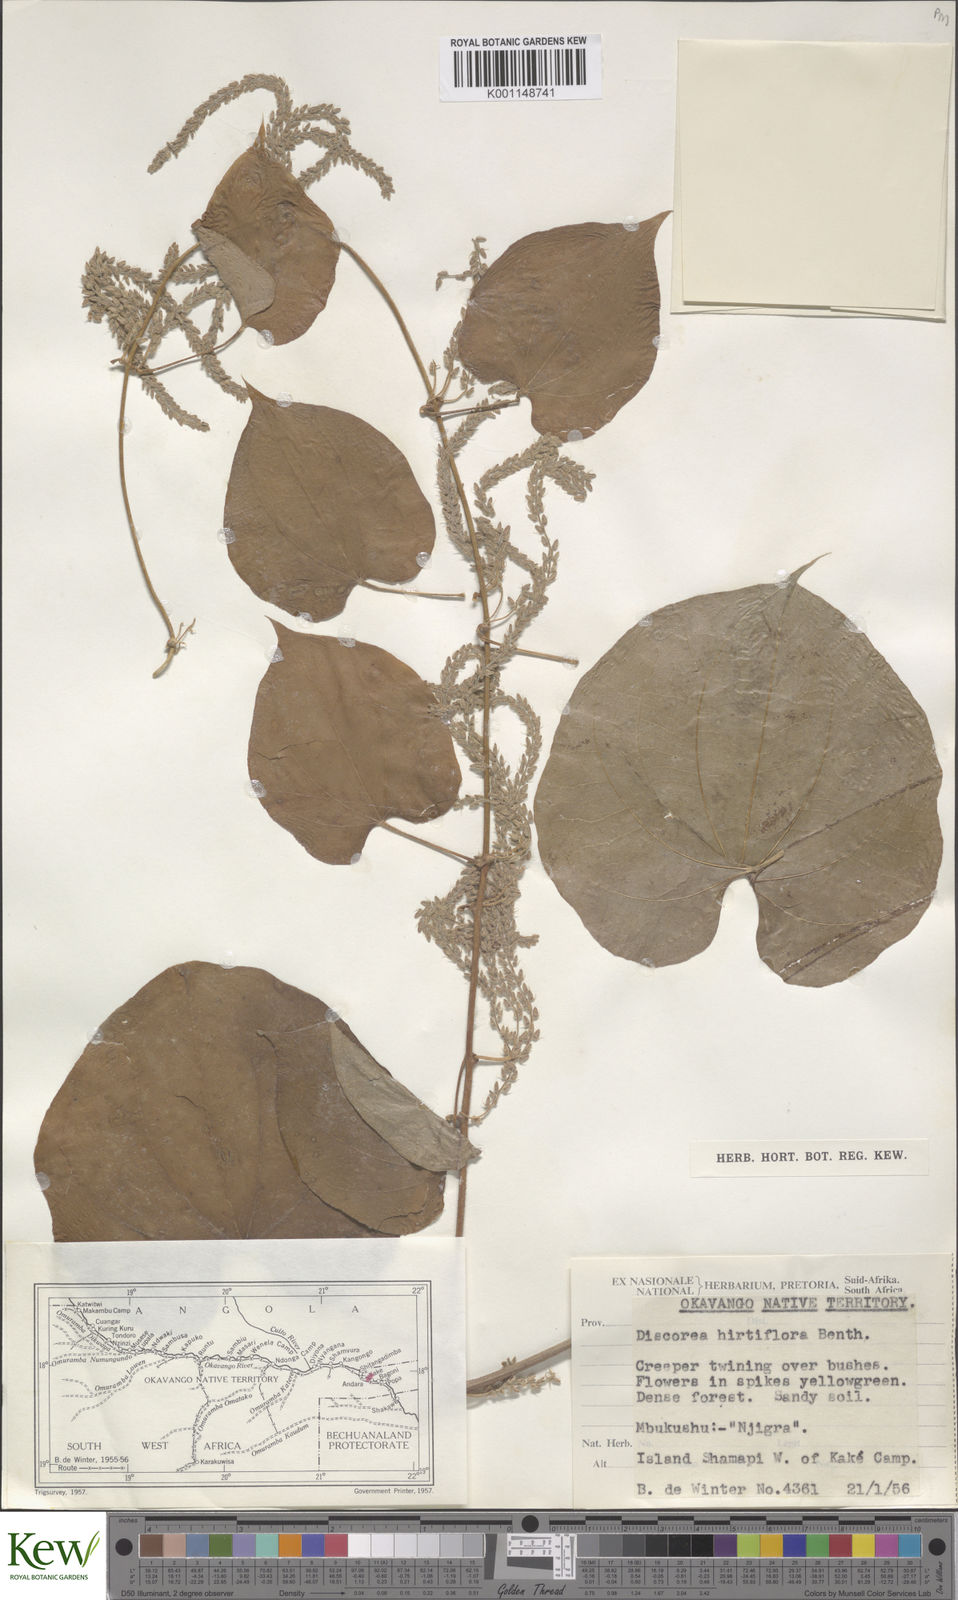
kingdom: Plantae
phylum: Tracheophyta
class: Liliopsida
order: Dioscoreales
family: Dioscoreaceae
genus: Dioscorea
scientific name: Dioscorea hirtiflora
